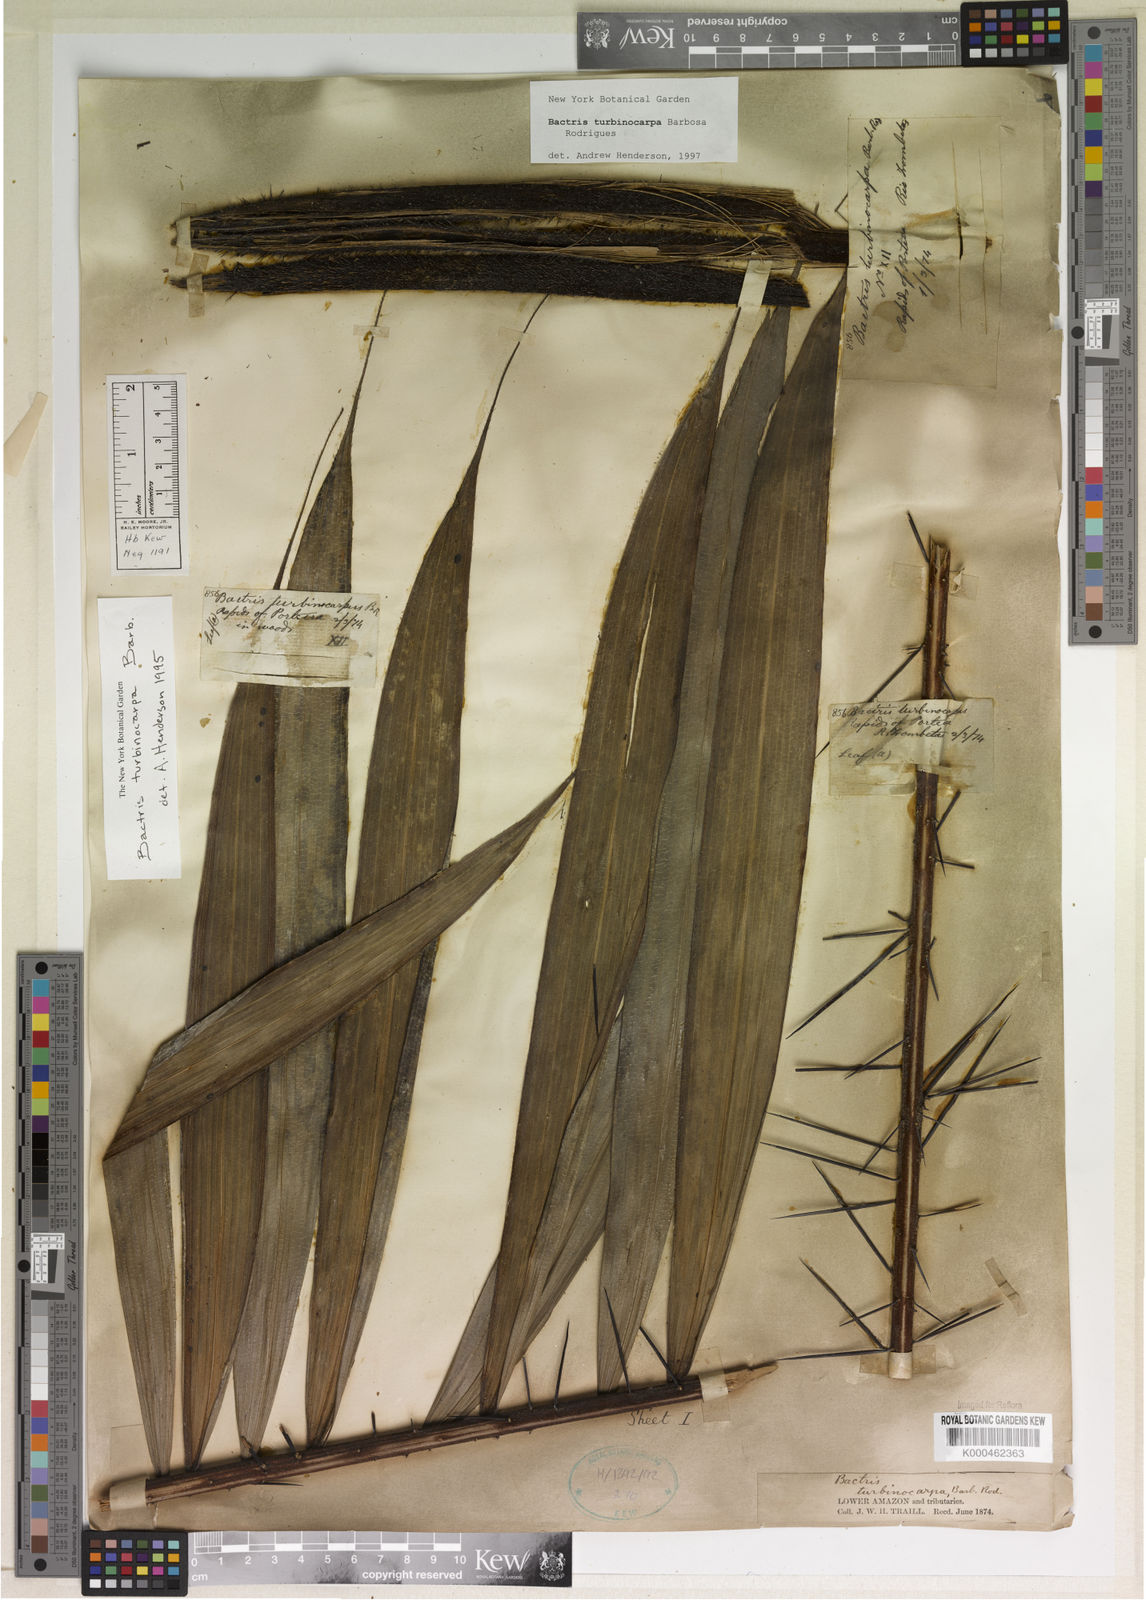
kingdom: Plantae
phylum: Tracheophyta
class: Liliopsida
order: Arecales
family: Arecaceae
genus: Bactris
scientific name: Bactris turbinocarpa
